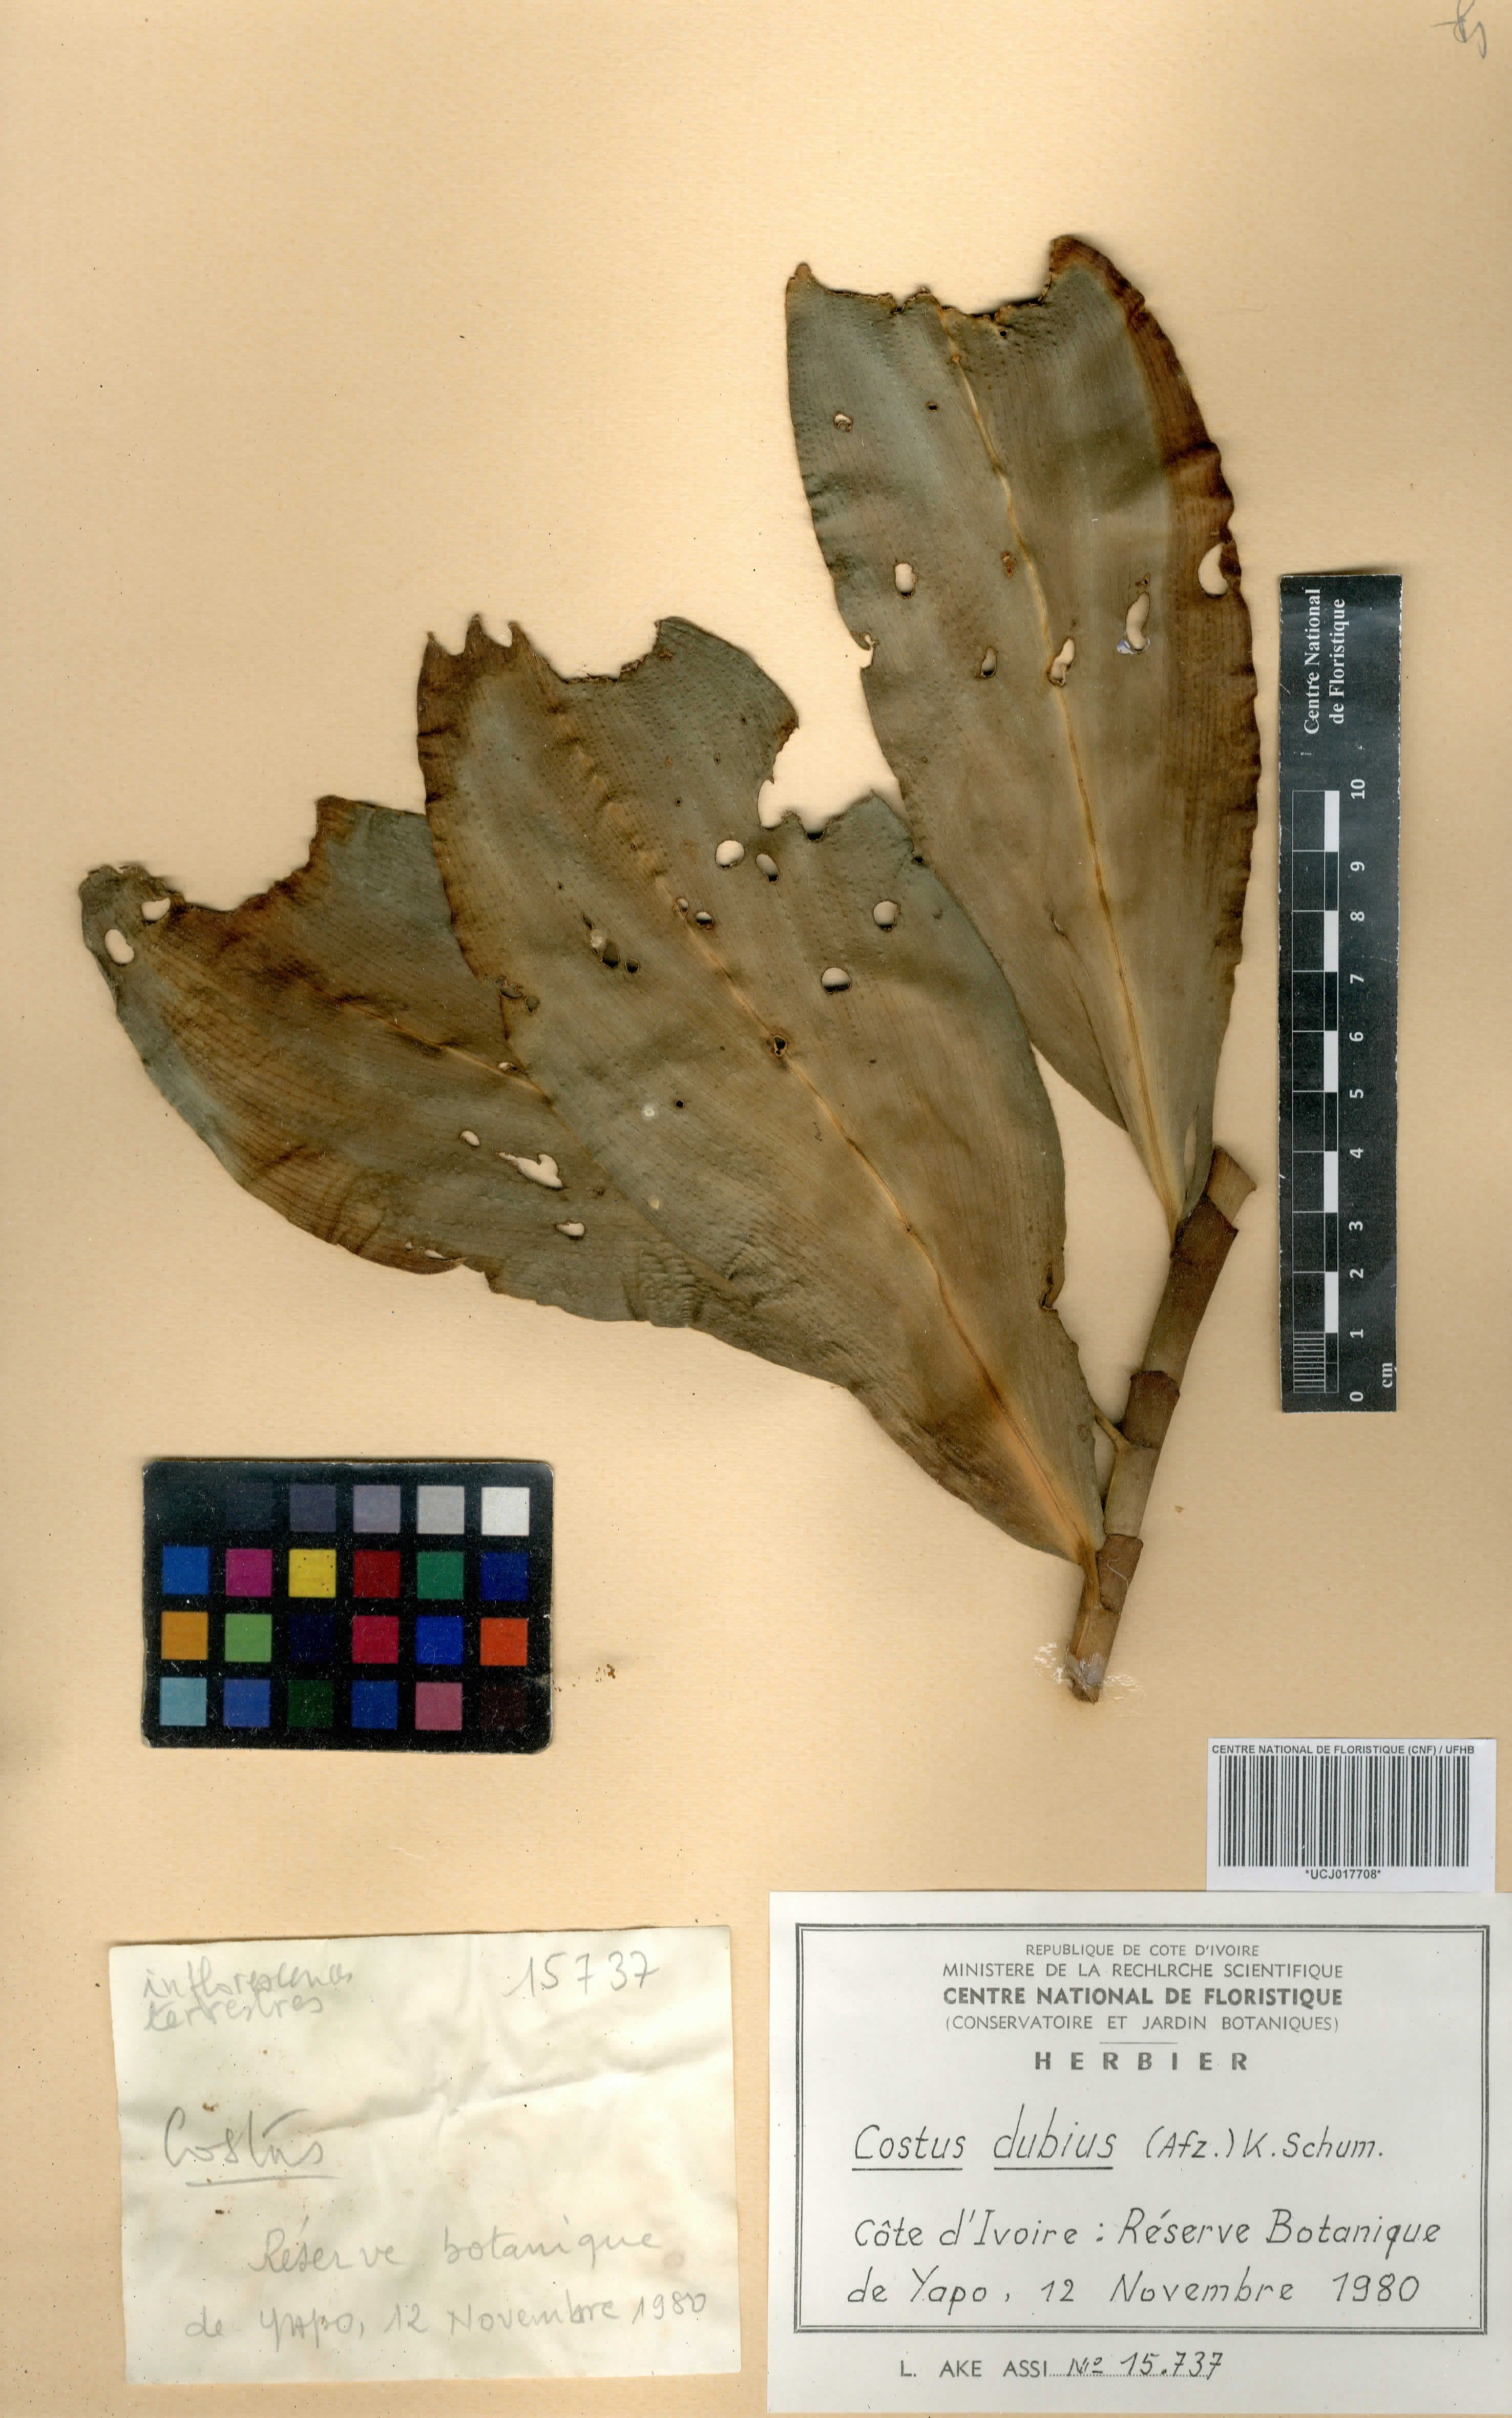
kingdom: Plantae
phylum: Tracheophyta
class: Liliopsida
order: Zingiberales
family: Costaceae
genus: Costus
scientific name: Costus dubius
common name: Costus
